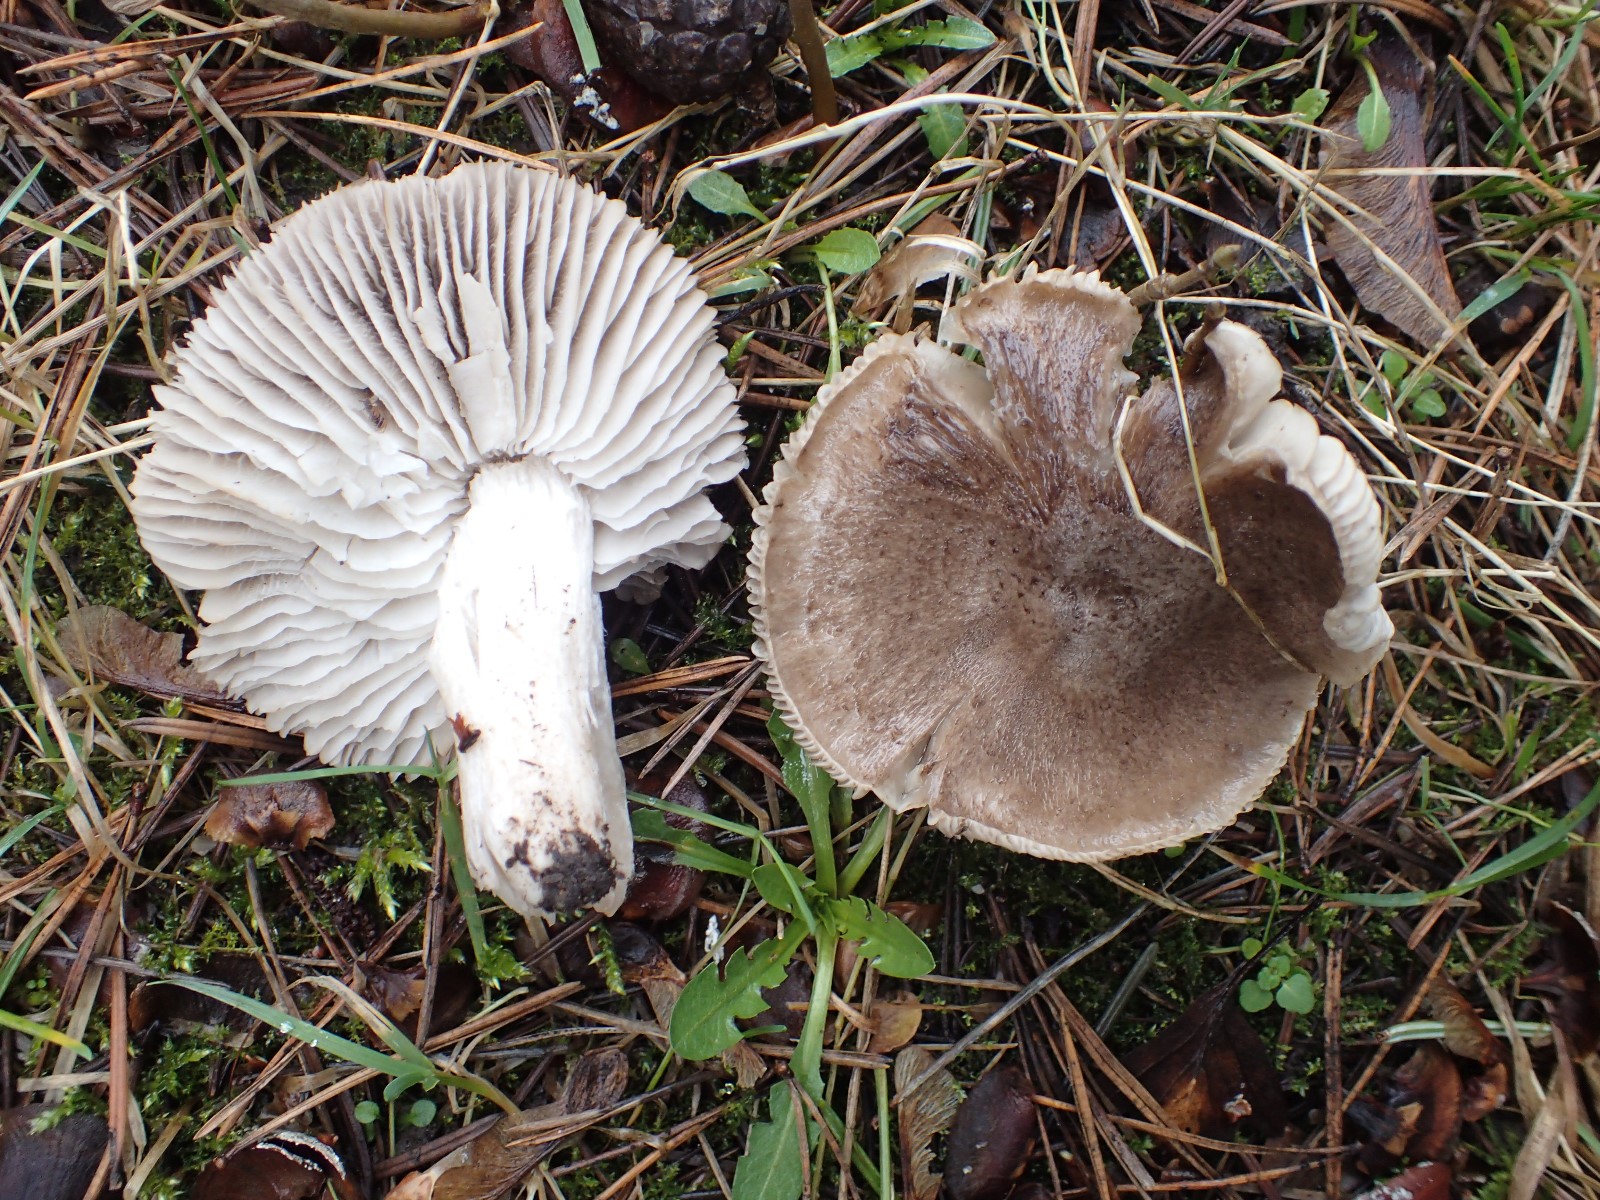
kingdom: Fungi
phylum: Basidiomycota
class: Agaricomycetes
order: Agaricales
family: Tricholomataceae
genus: Tricholoma
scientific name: Tricholoma terreum
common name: jordfarvet ridderhat
